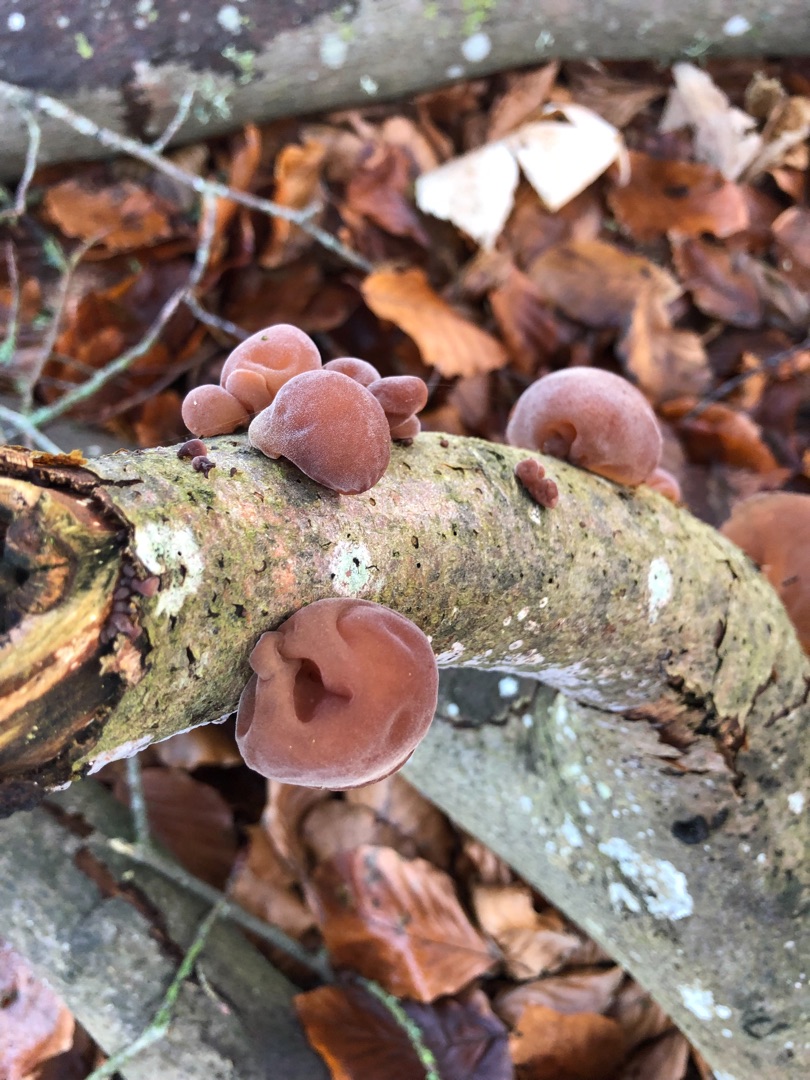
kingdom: Fungi
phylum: Basidiomycota
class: Agaricomycetes
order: Auriculariales
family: Auriculariaceae
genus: Auricularia
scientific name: Auricularia auricula-judae
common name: Almindelig judasøre
